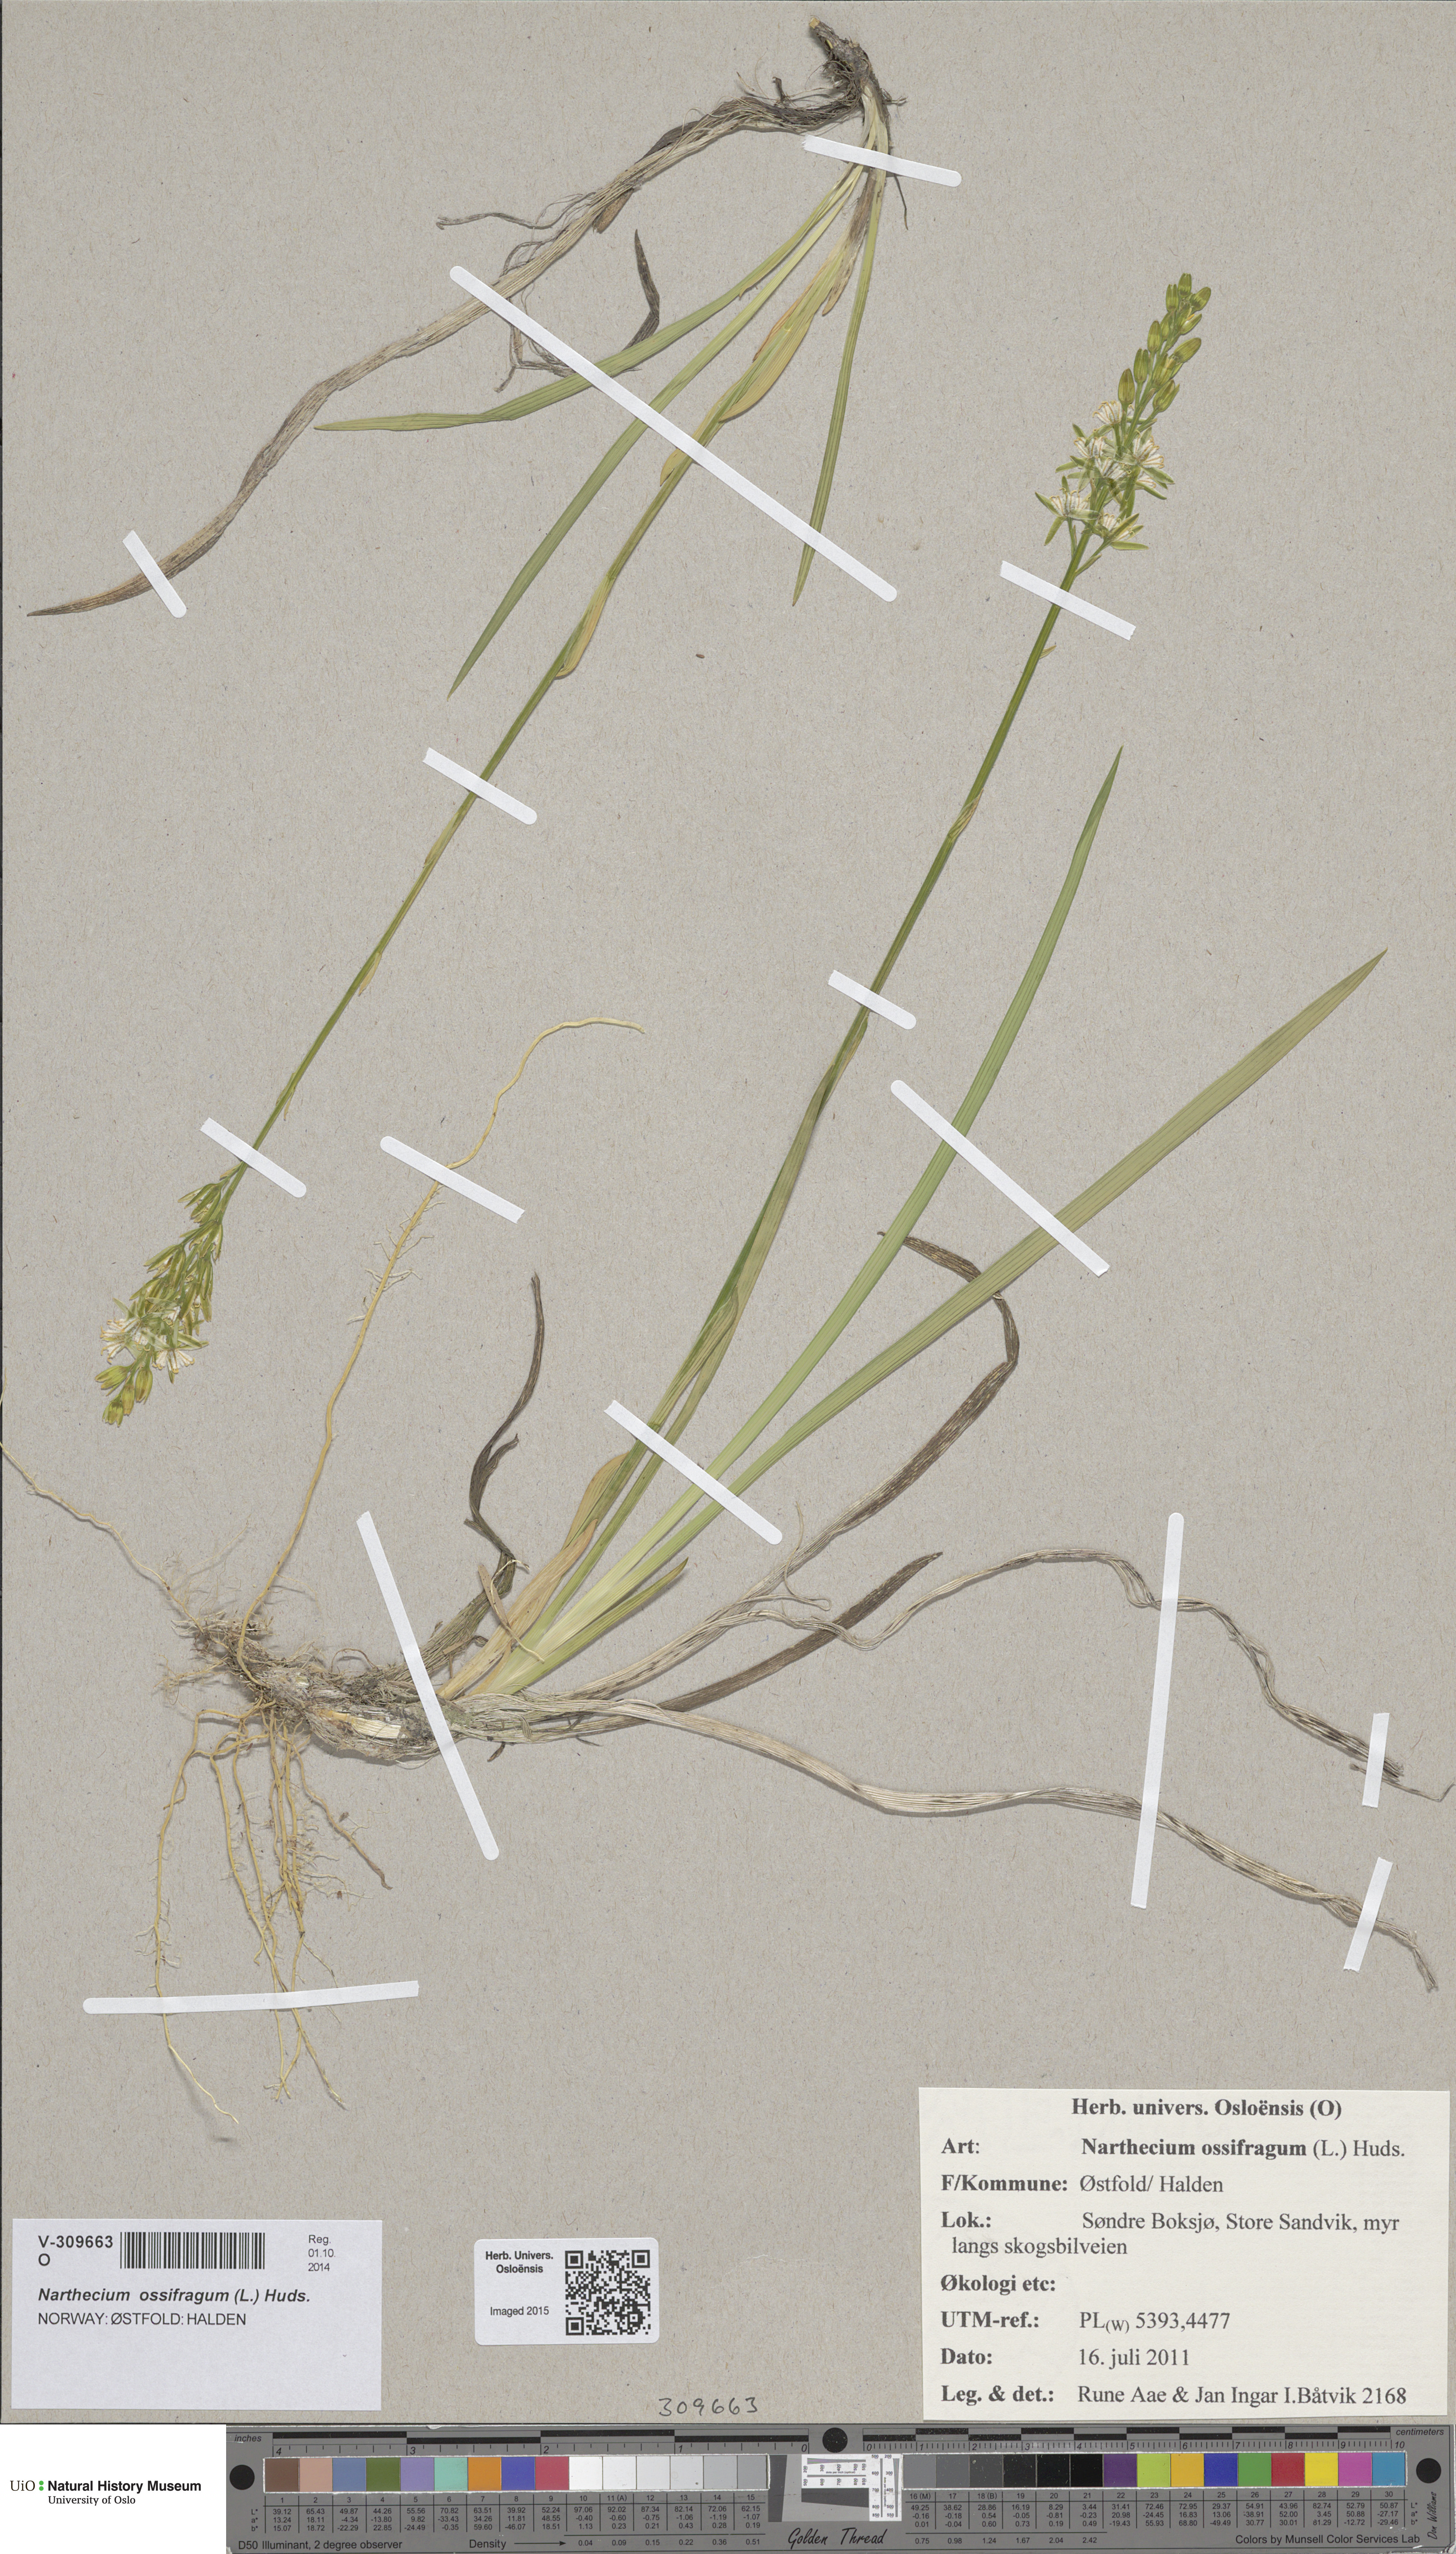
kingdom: Plantae
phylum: Tracheophyta
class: Liliopsida
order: Dioscoreales
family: Nartheciaceae
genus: Narthecium
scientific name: Narthecium ossifragum
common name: Bog asphodel
